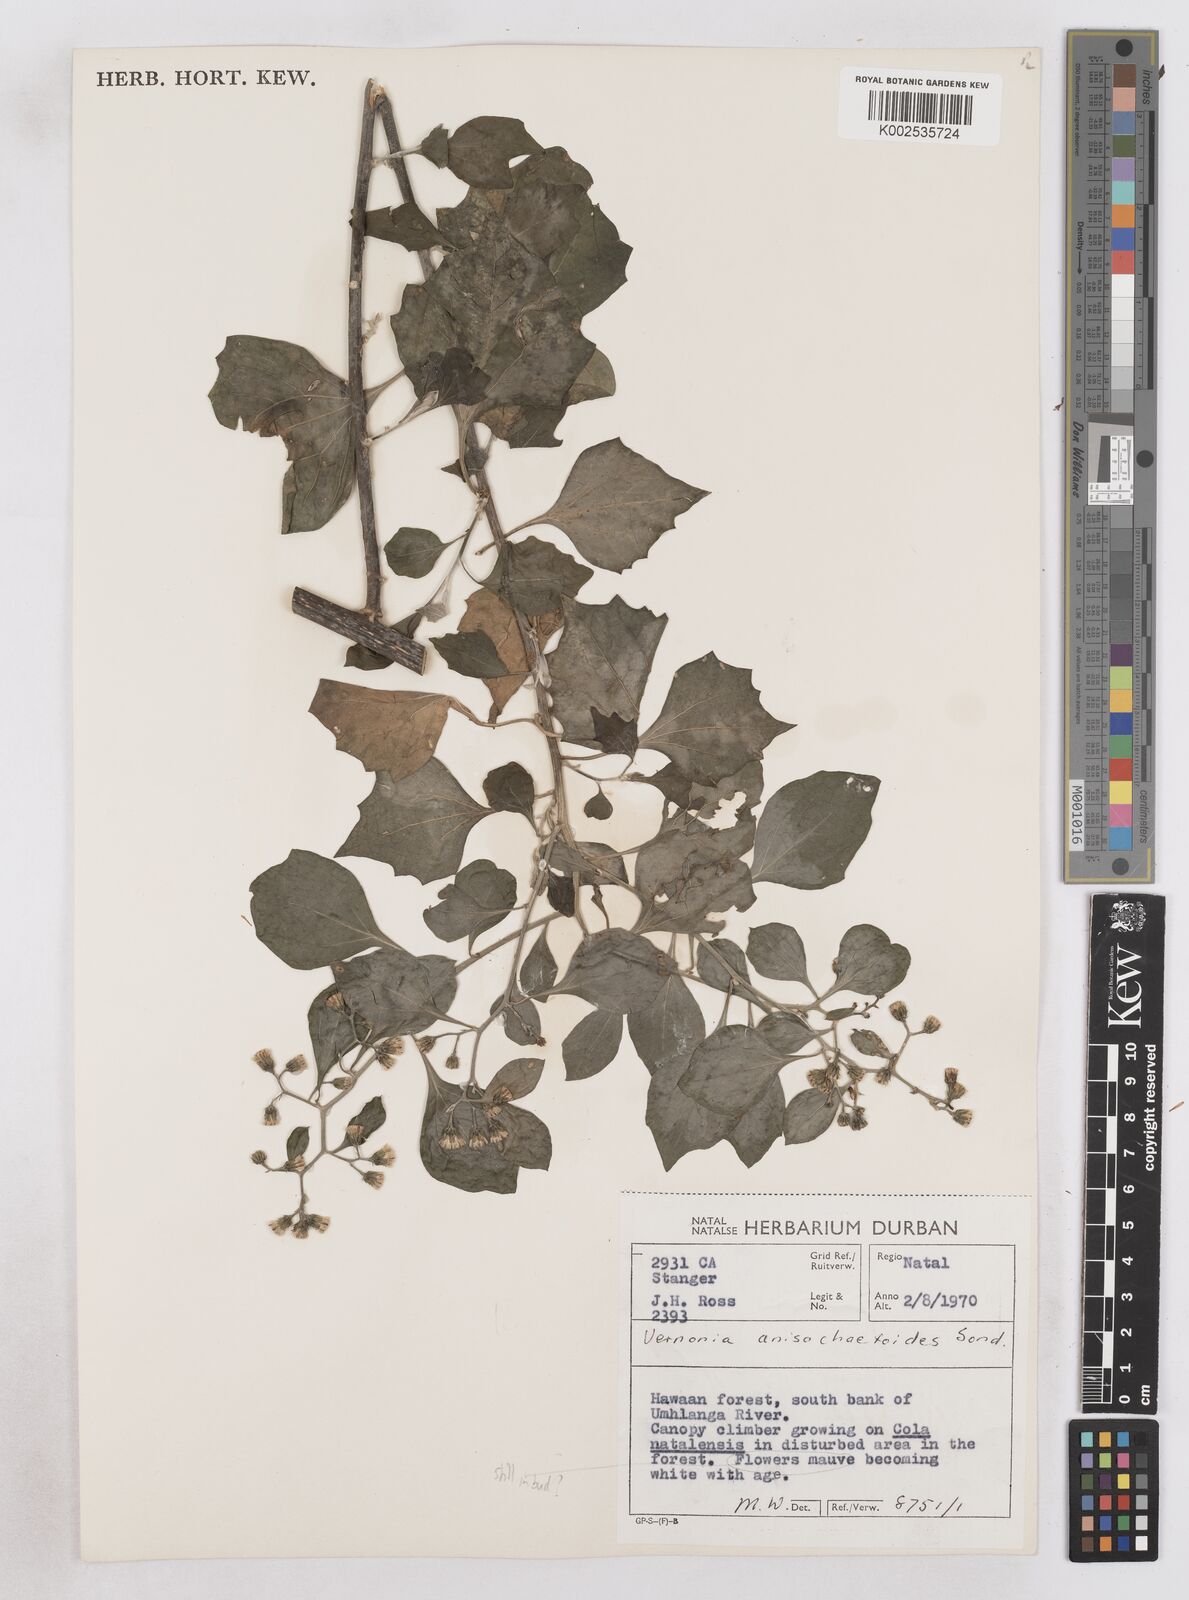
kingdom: Plantae
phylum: Tracheophyta
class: Magnoliopsida
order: Asterales
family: Asteraceae
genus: Distephanus
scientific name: Distephanus anisochaetoides
